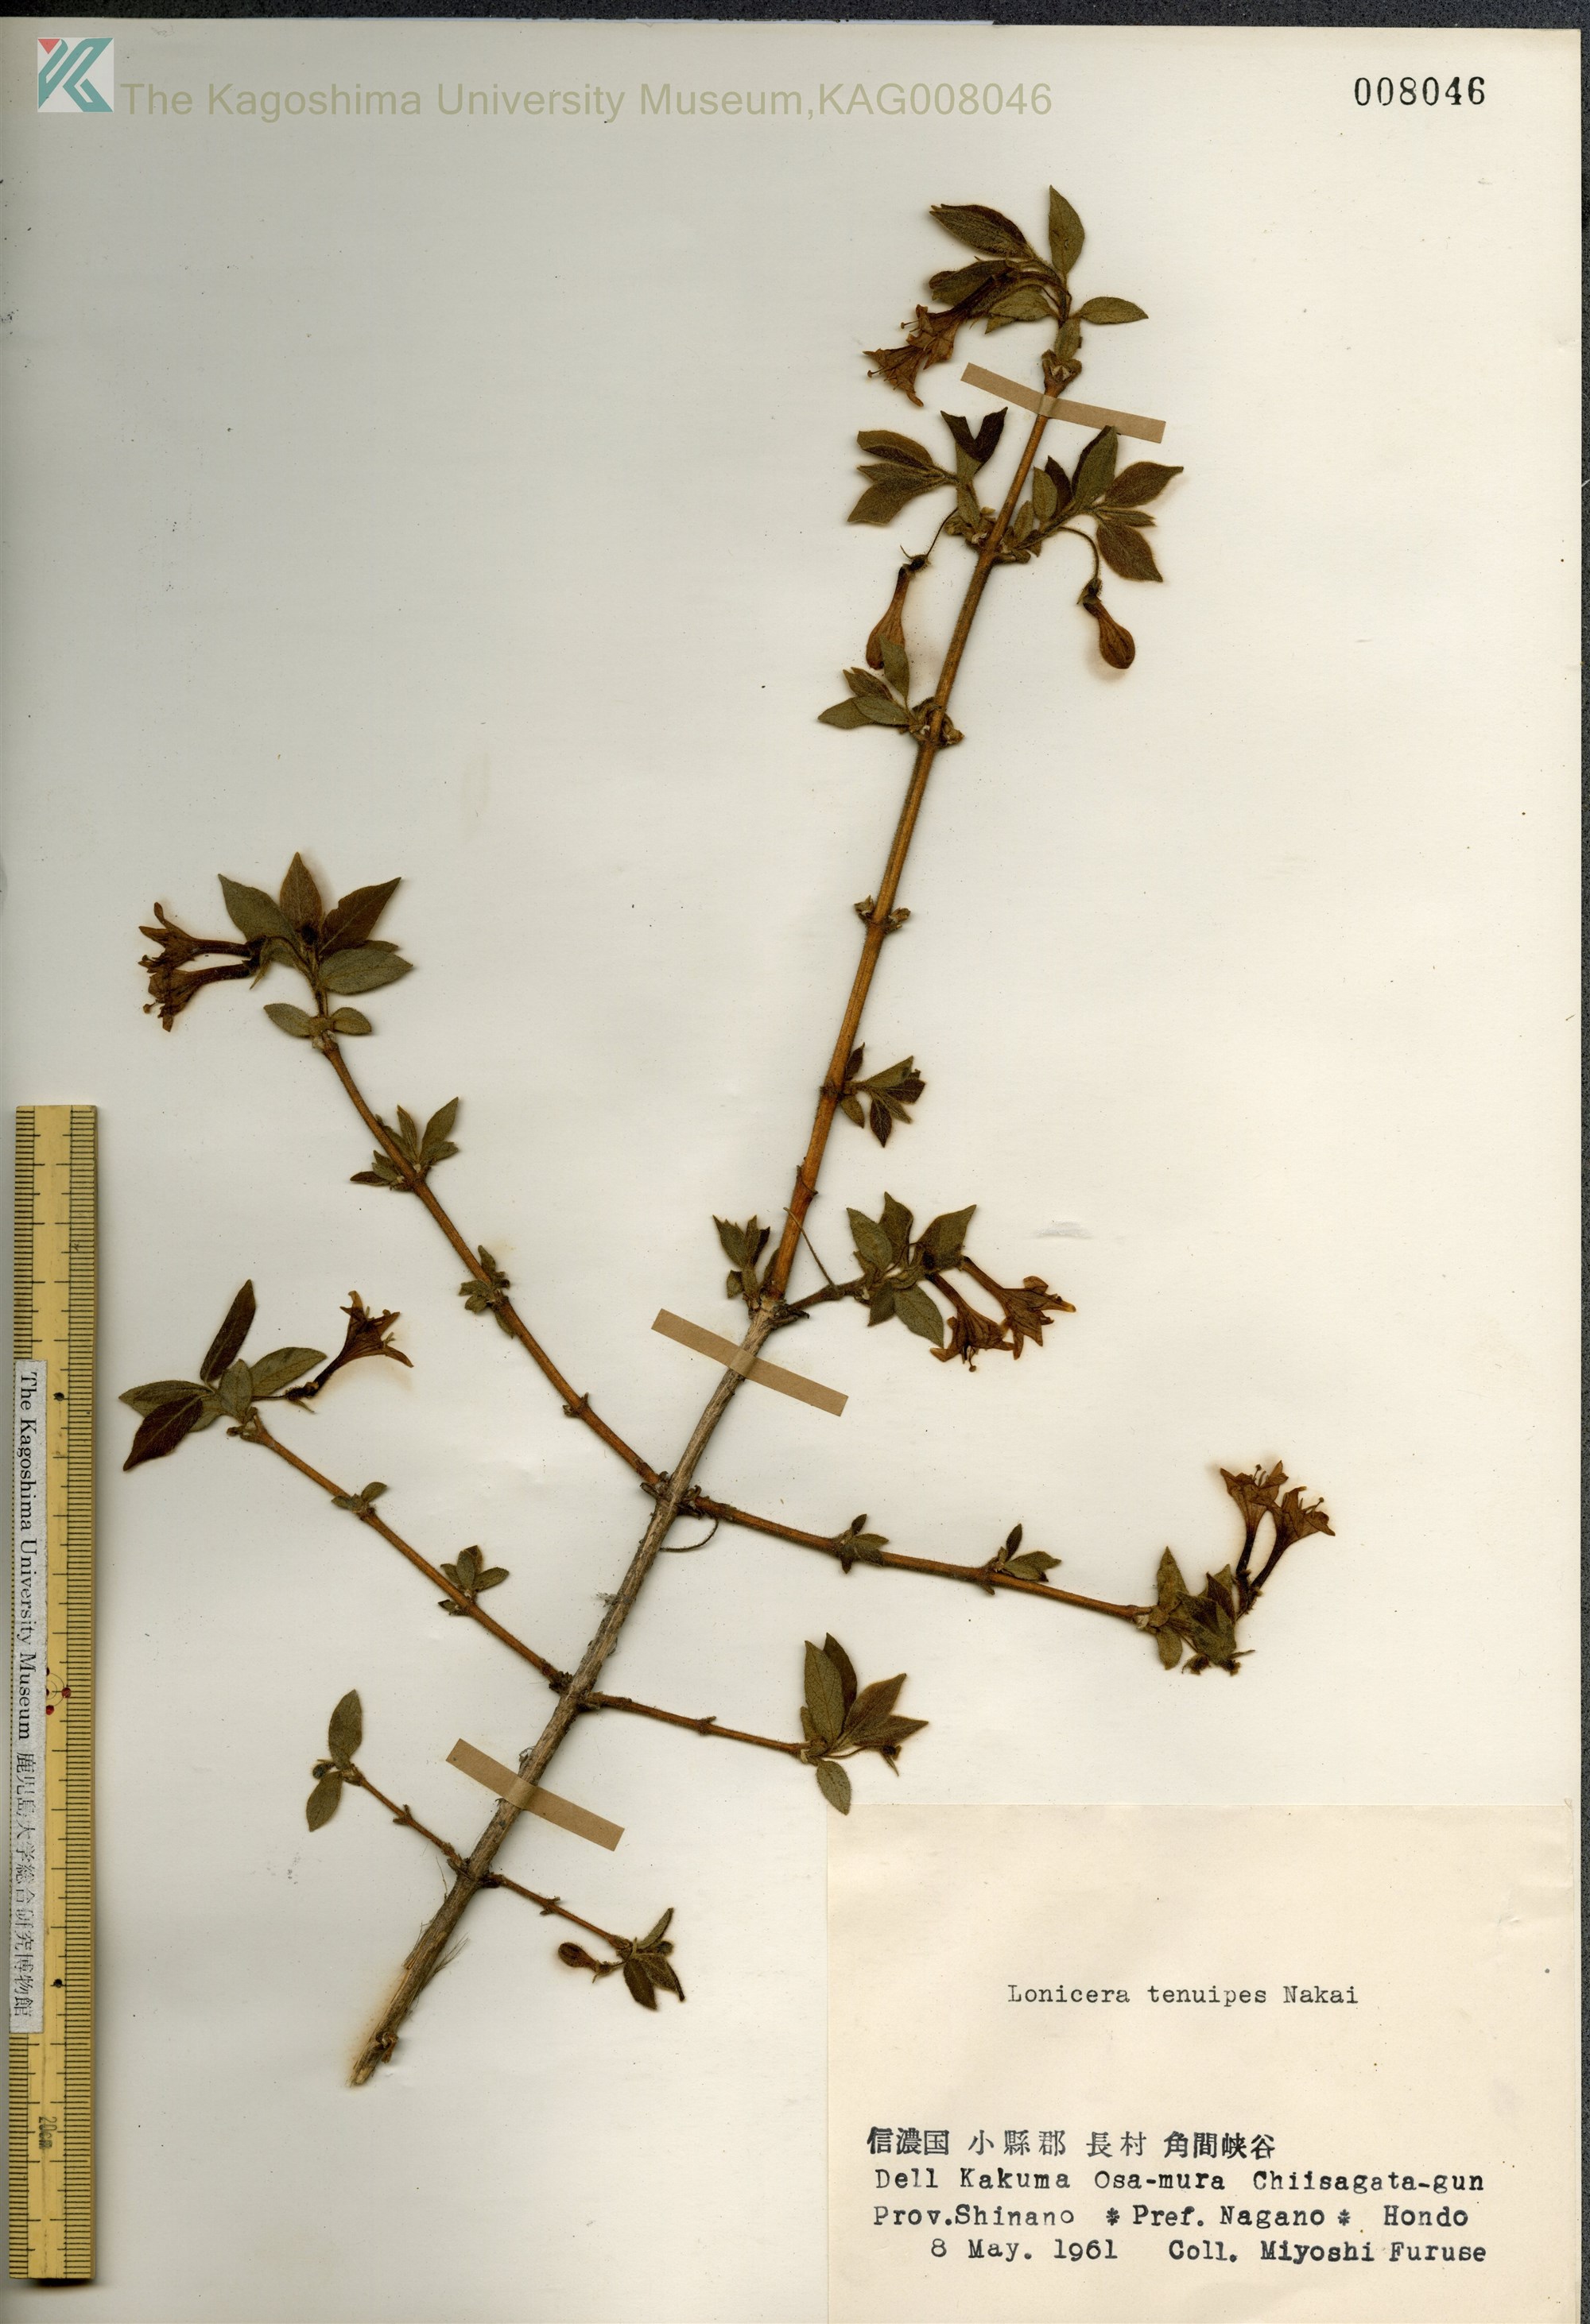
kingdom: Plantae
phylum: Tracheophyta
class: Magnoliopsida
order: Dipsacales
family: Caprifoliaceae
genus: Lonicera
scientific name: Lonicera gracilipes
